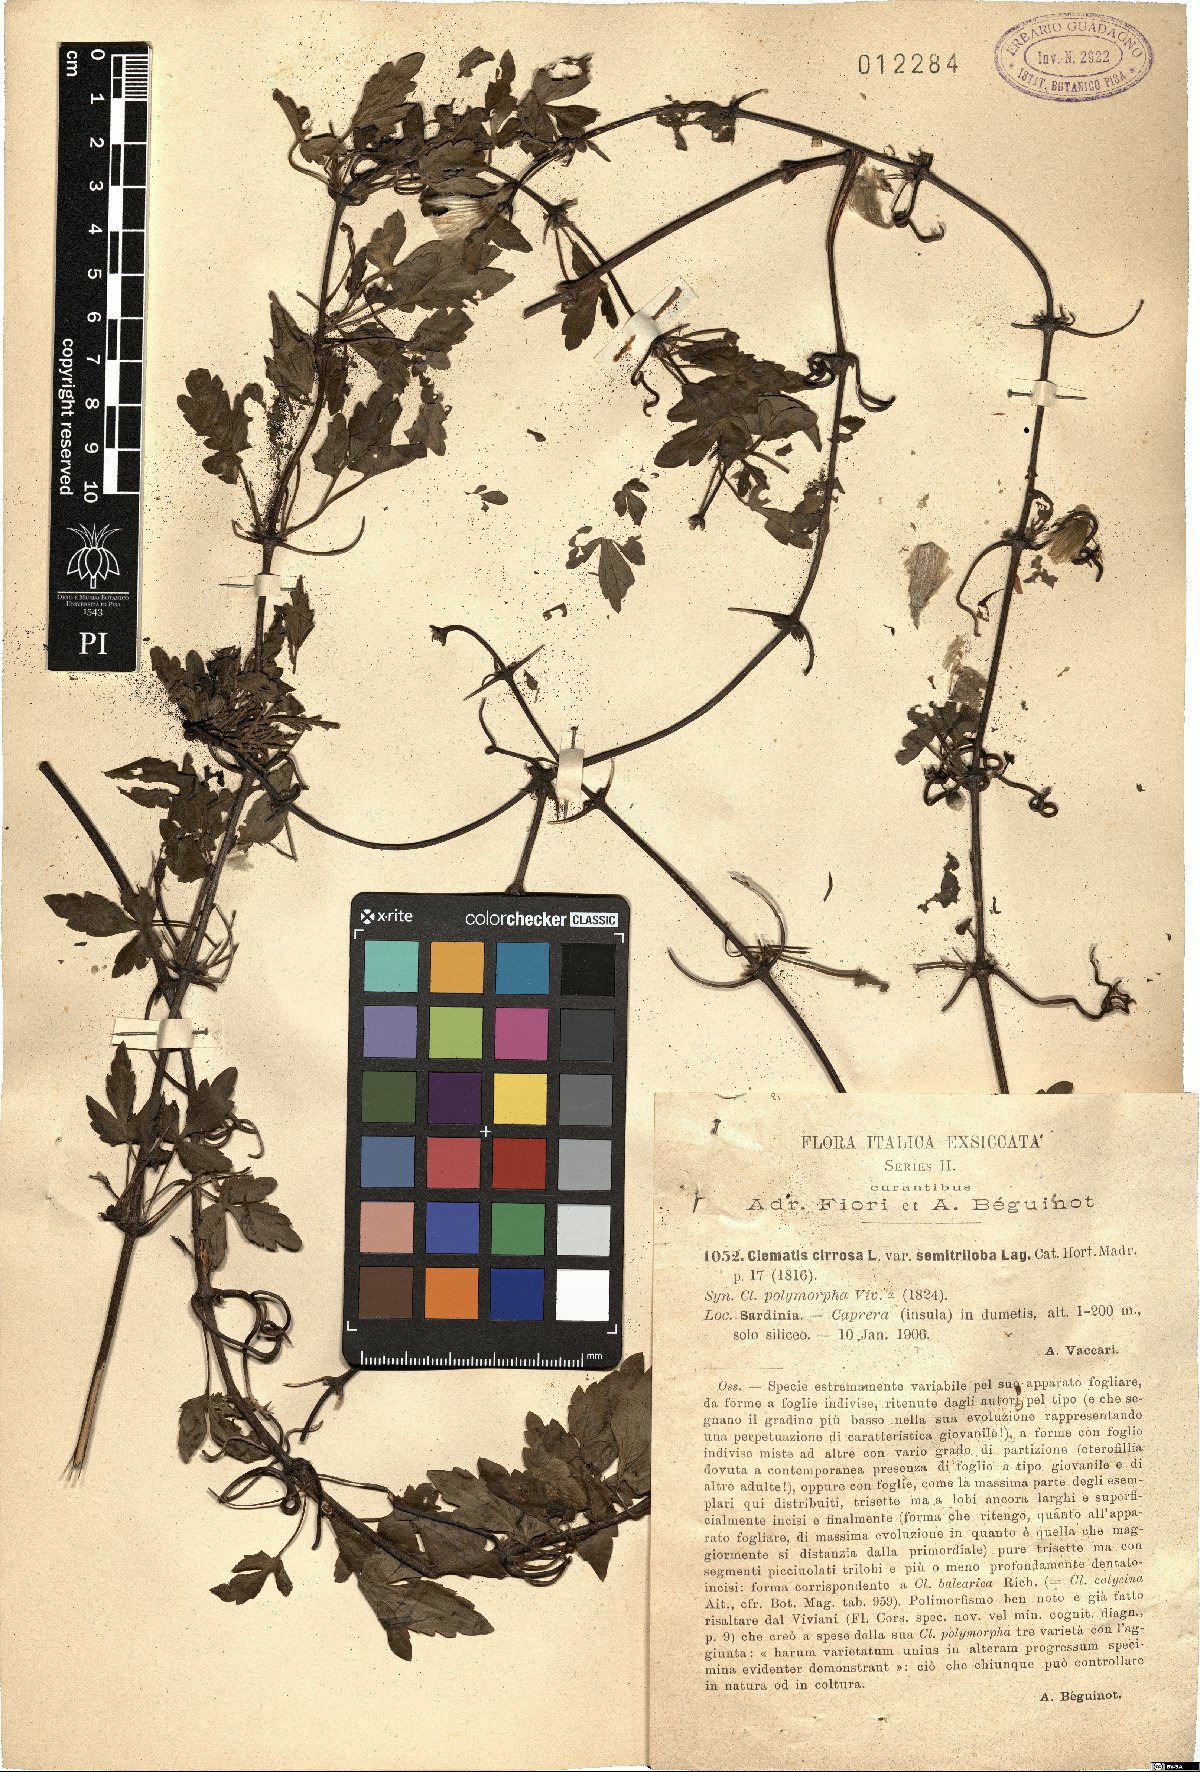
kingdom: Plantae
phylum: Tracheophyta
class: Magnoliopsida
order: Ranunculales
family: Ranunculaceae
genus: Clematis
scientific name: Clematis cirrhosa
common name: Early virgin's-bower
